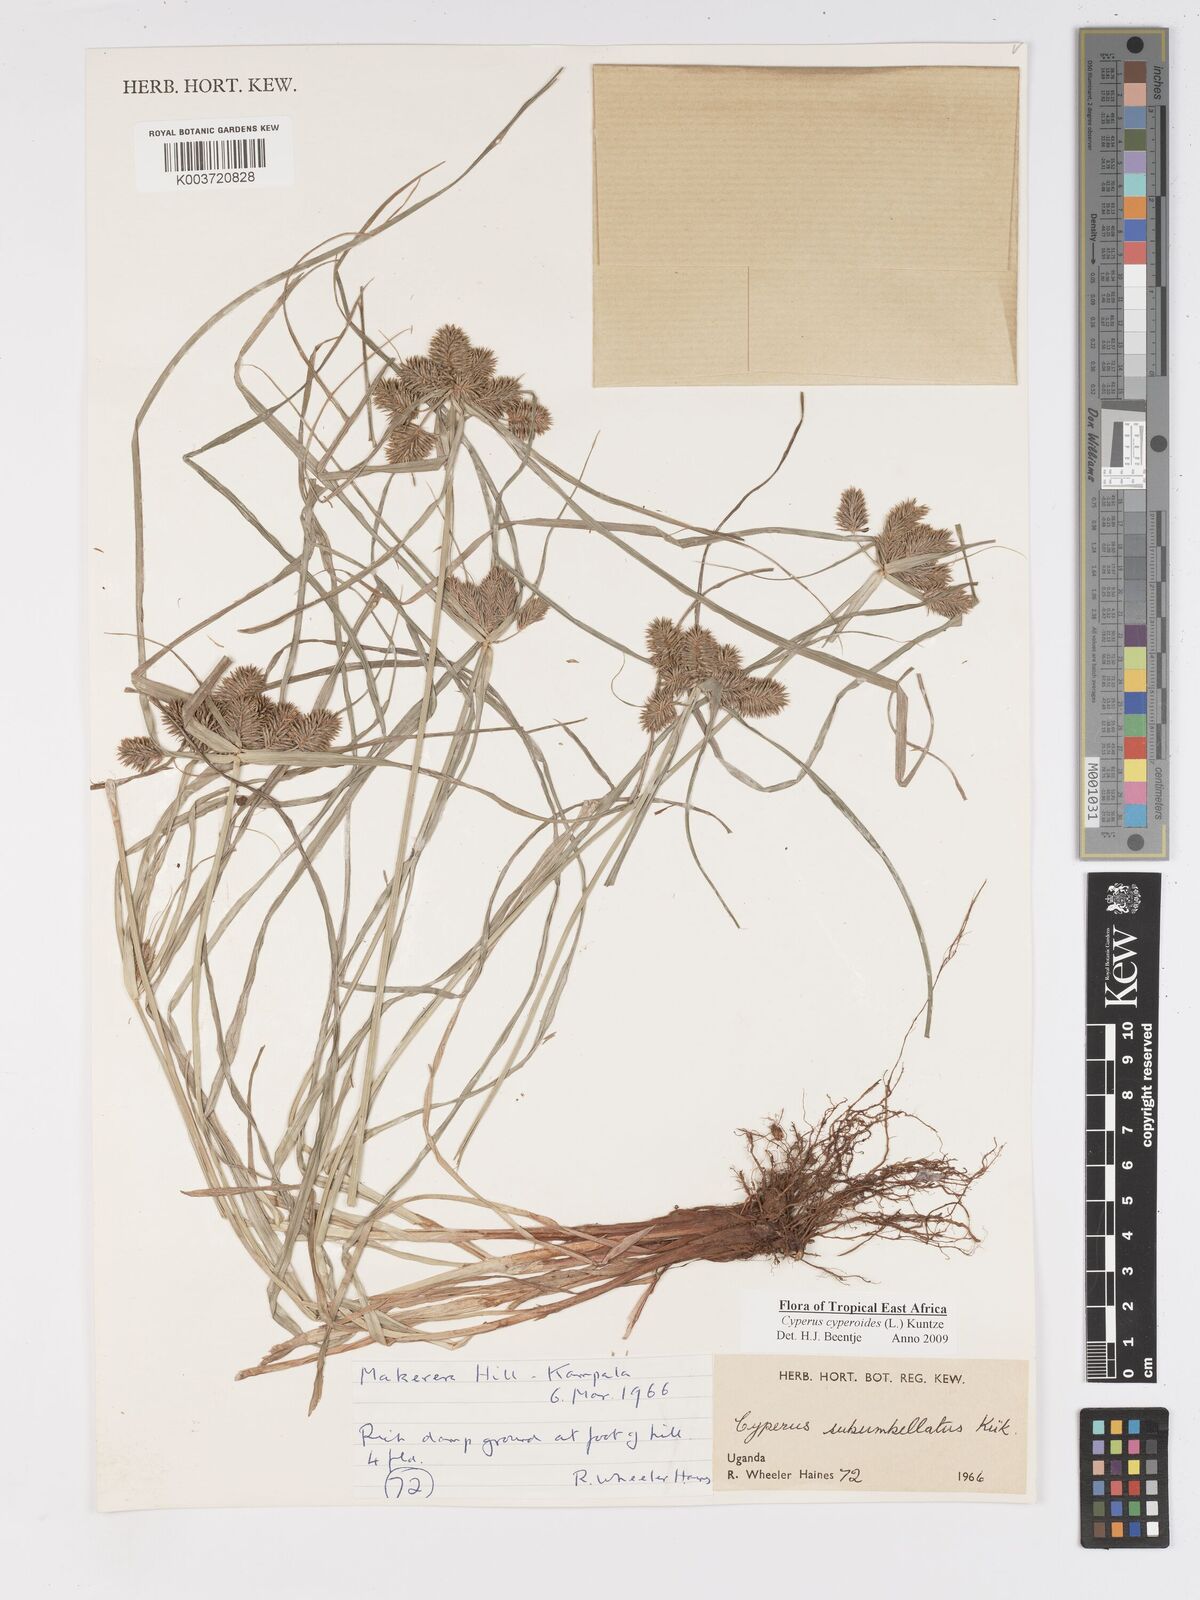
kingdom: Plantae
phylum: Tracheophyta
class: Liliopsida
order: Poales
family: Cyperaceae
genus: Cyperus
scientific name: Cyperus cyperoides
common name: Pacific island flat sedge
